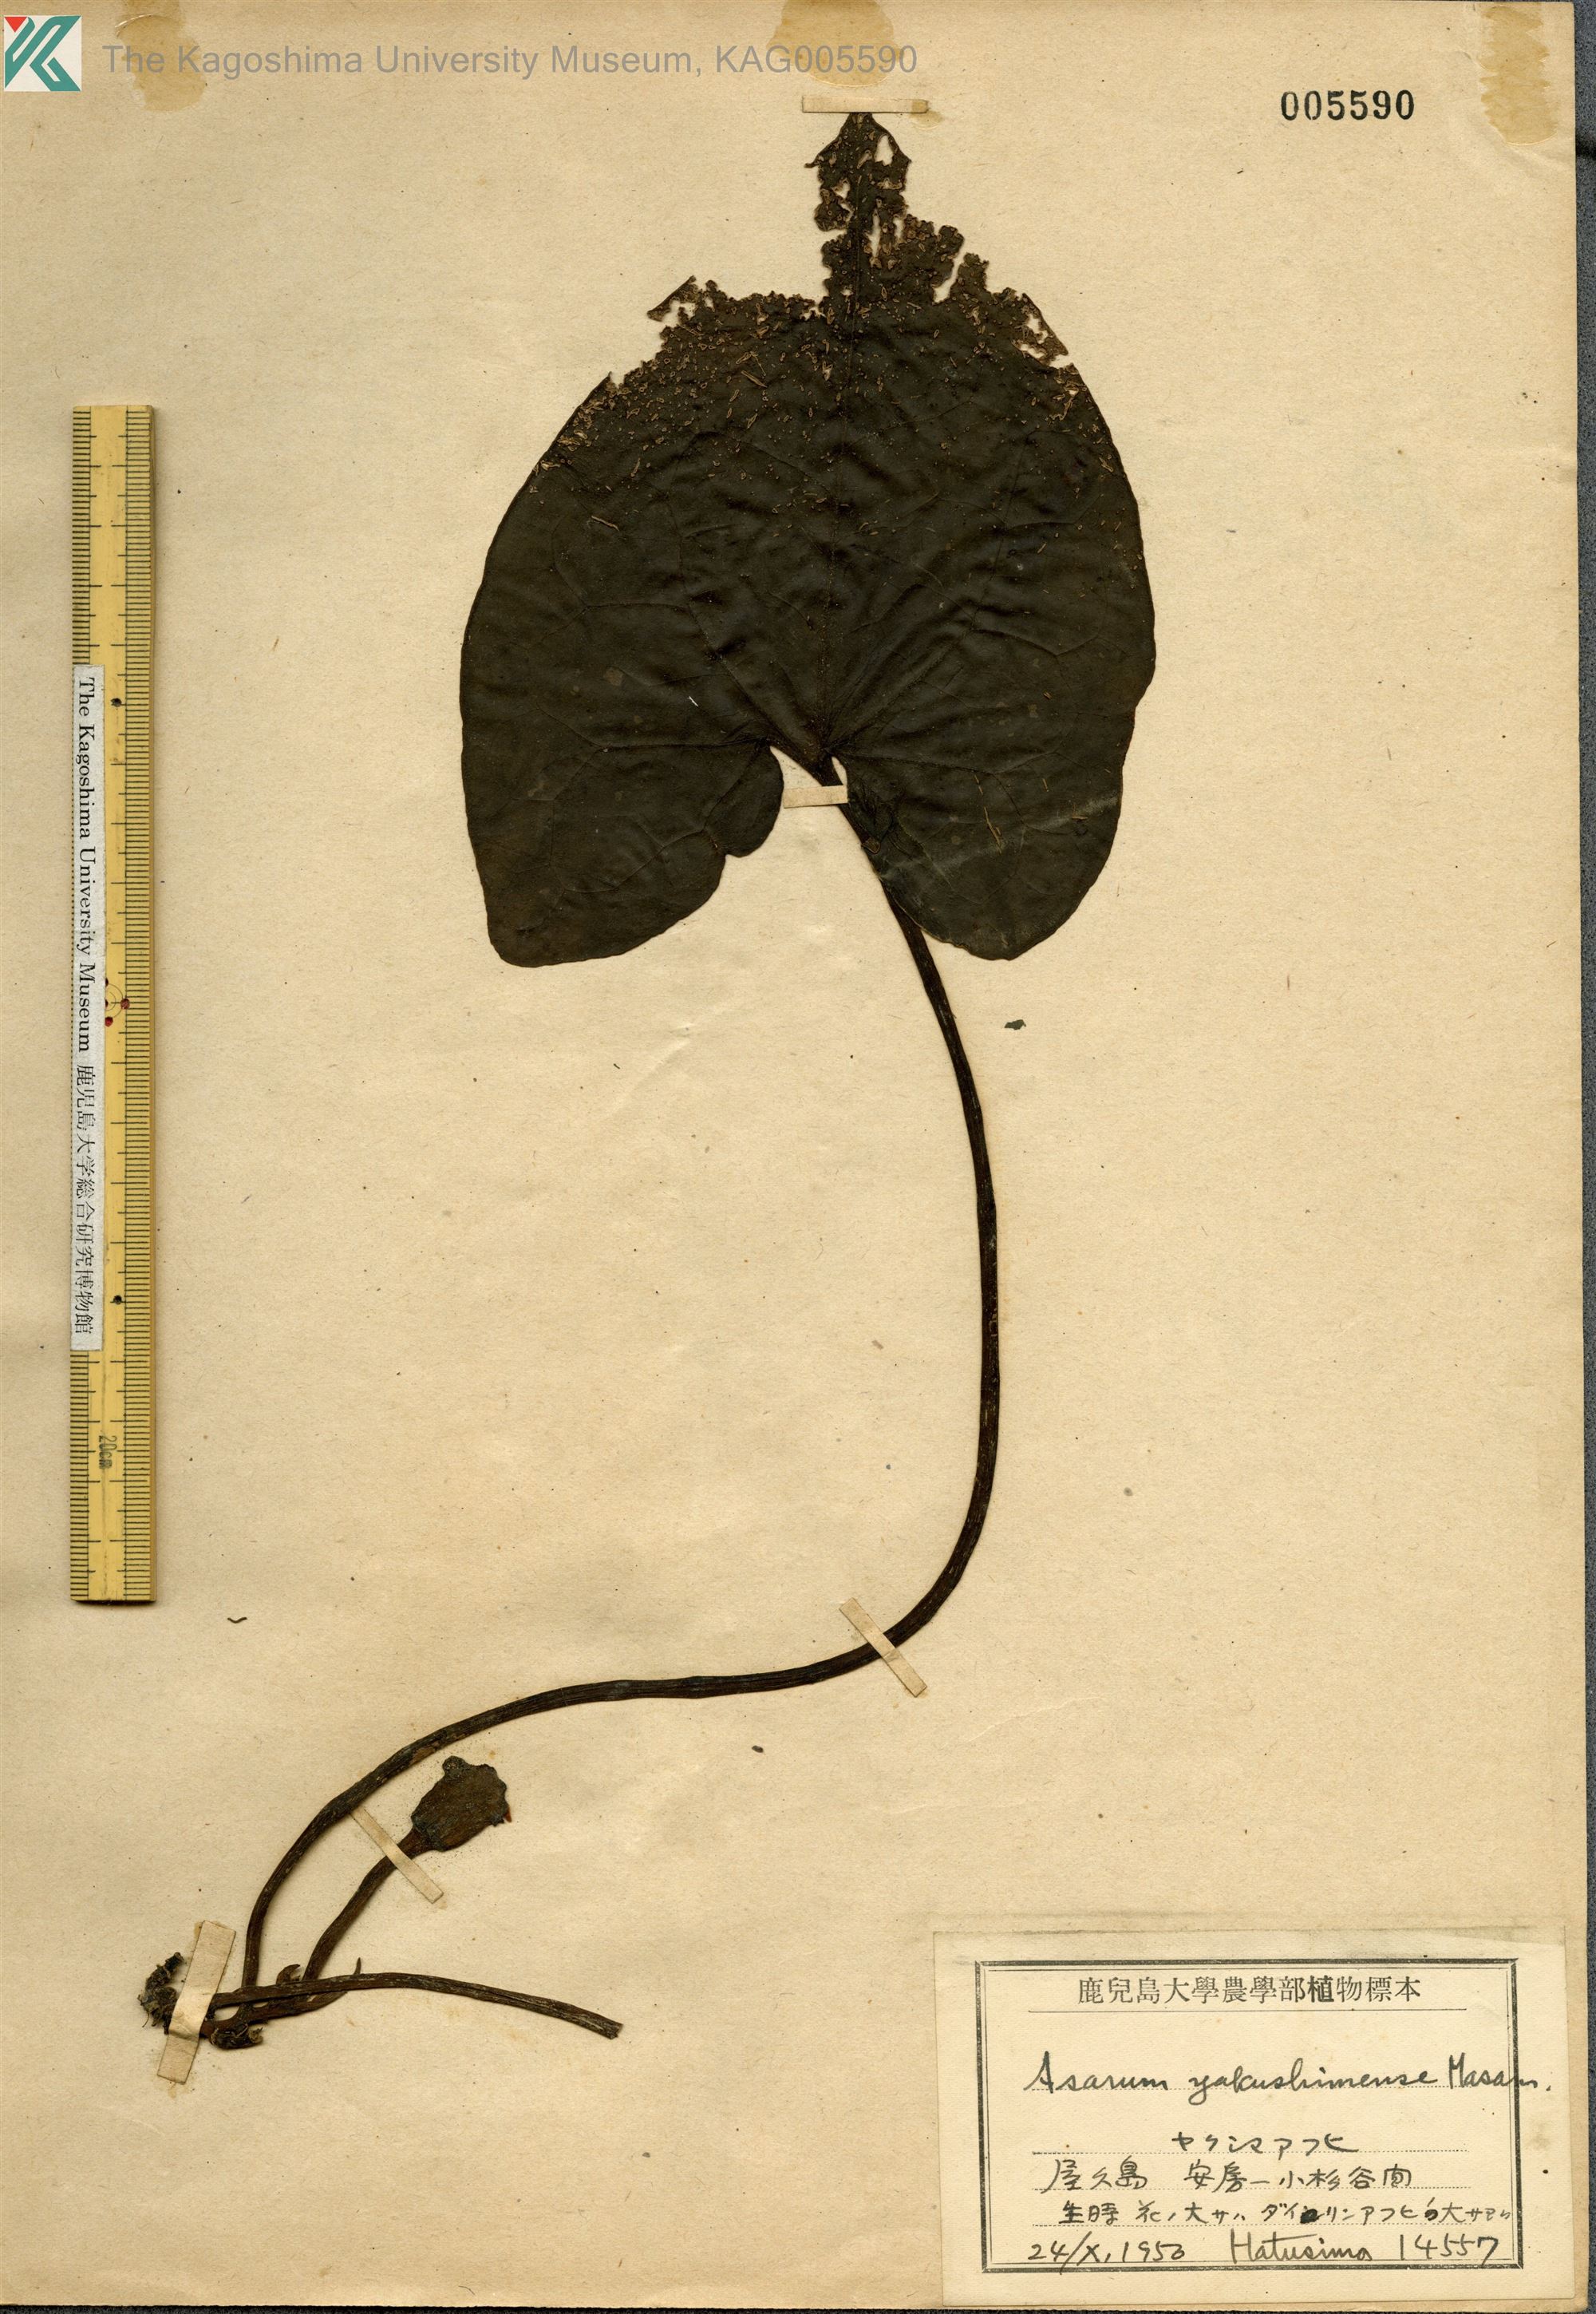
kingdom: Plantae
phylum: Tracheophyta
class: Magnoliopsida
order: Piperales
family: Aristolochiaceae
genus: Asarum
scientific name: Asarum kumageanum
